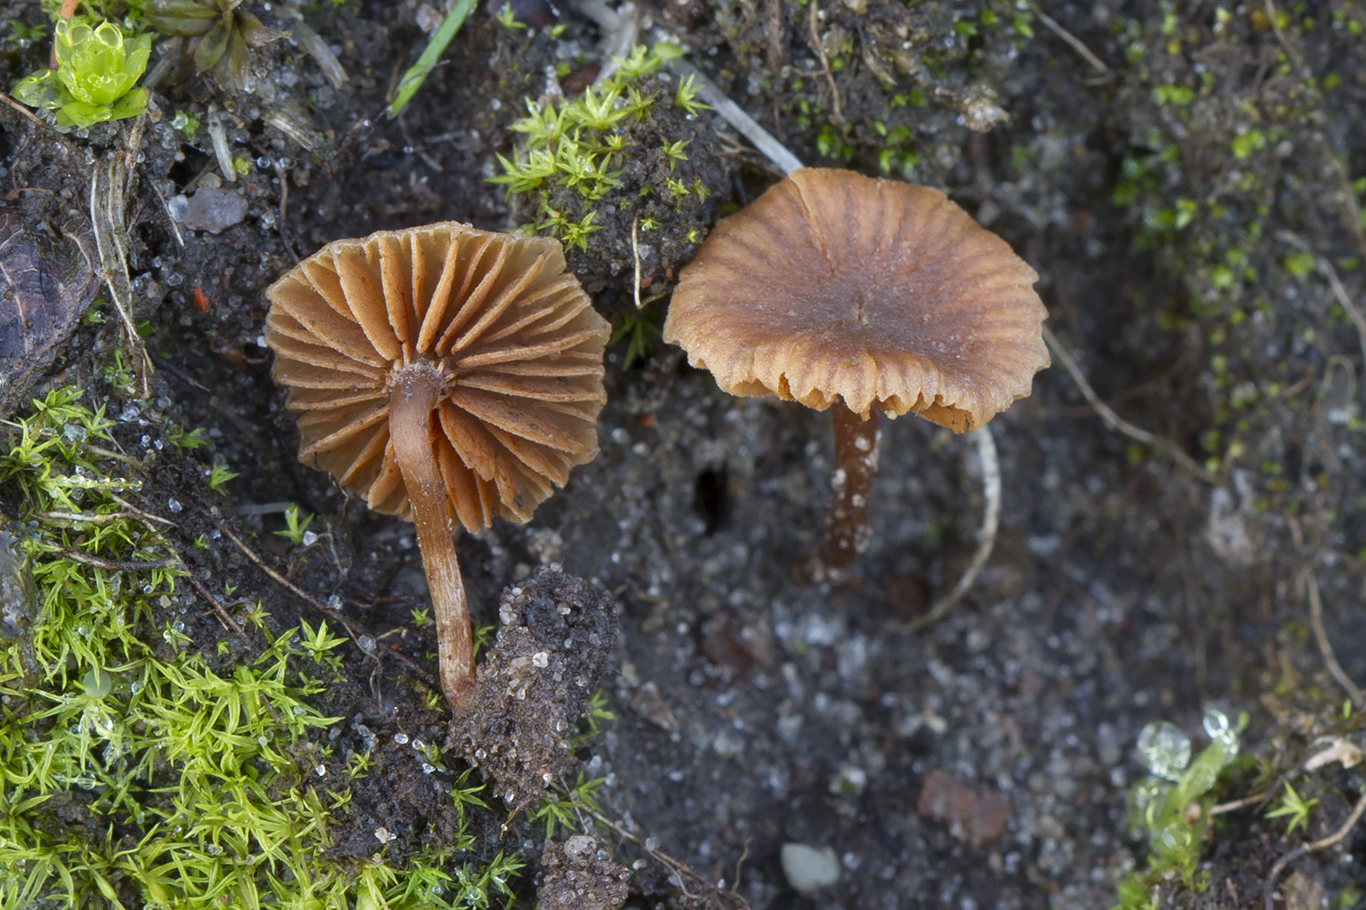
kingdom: Fungi
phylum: Basidiomycota
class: Agaricomycetes
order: Agaricales
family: Crassisporiaceae
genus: Romagnesiella
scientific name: Romagnesiella clavus
